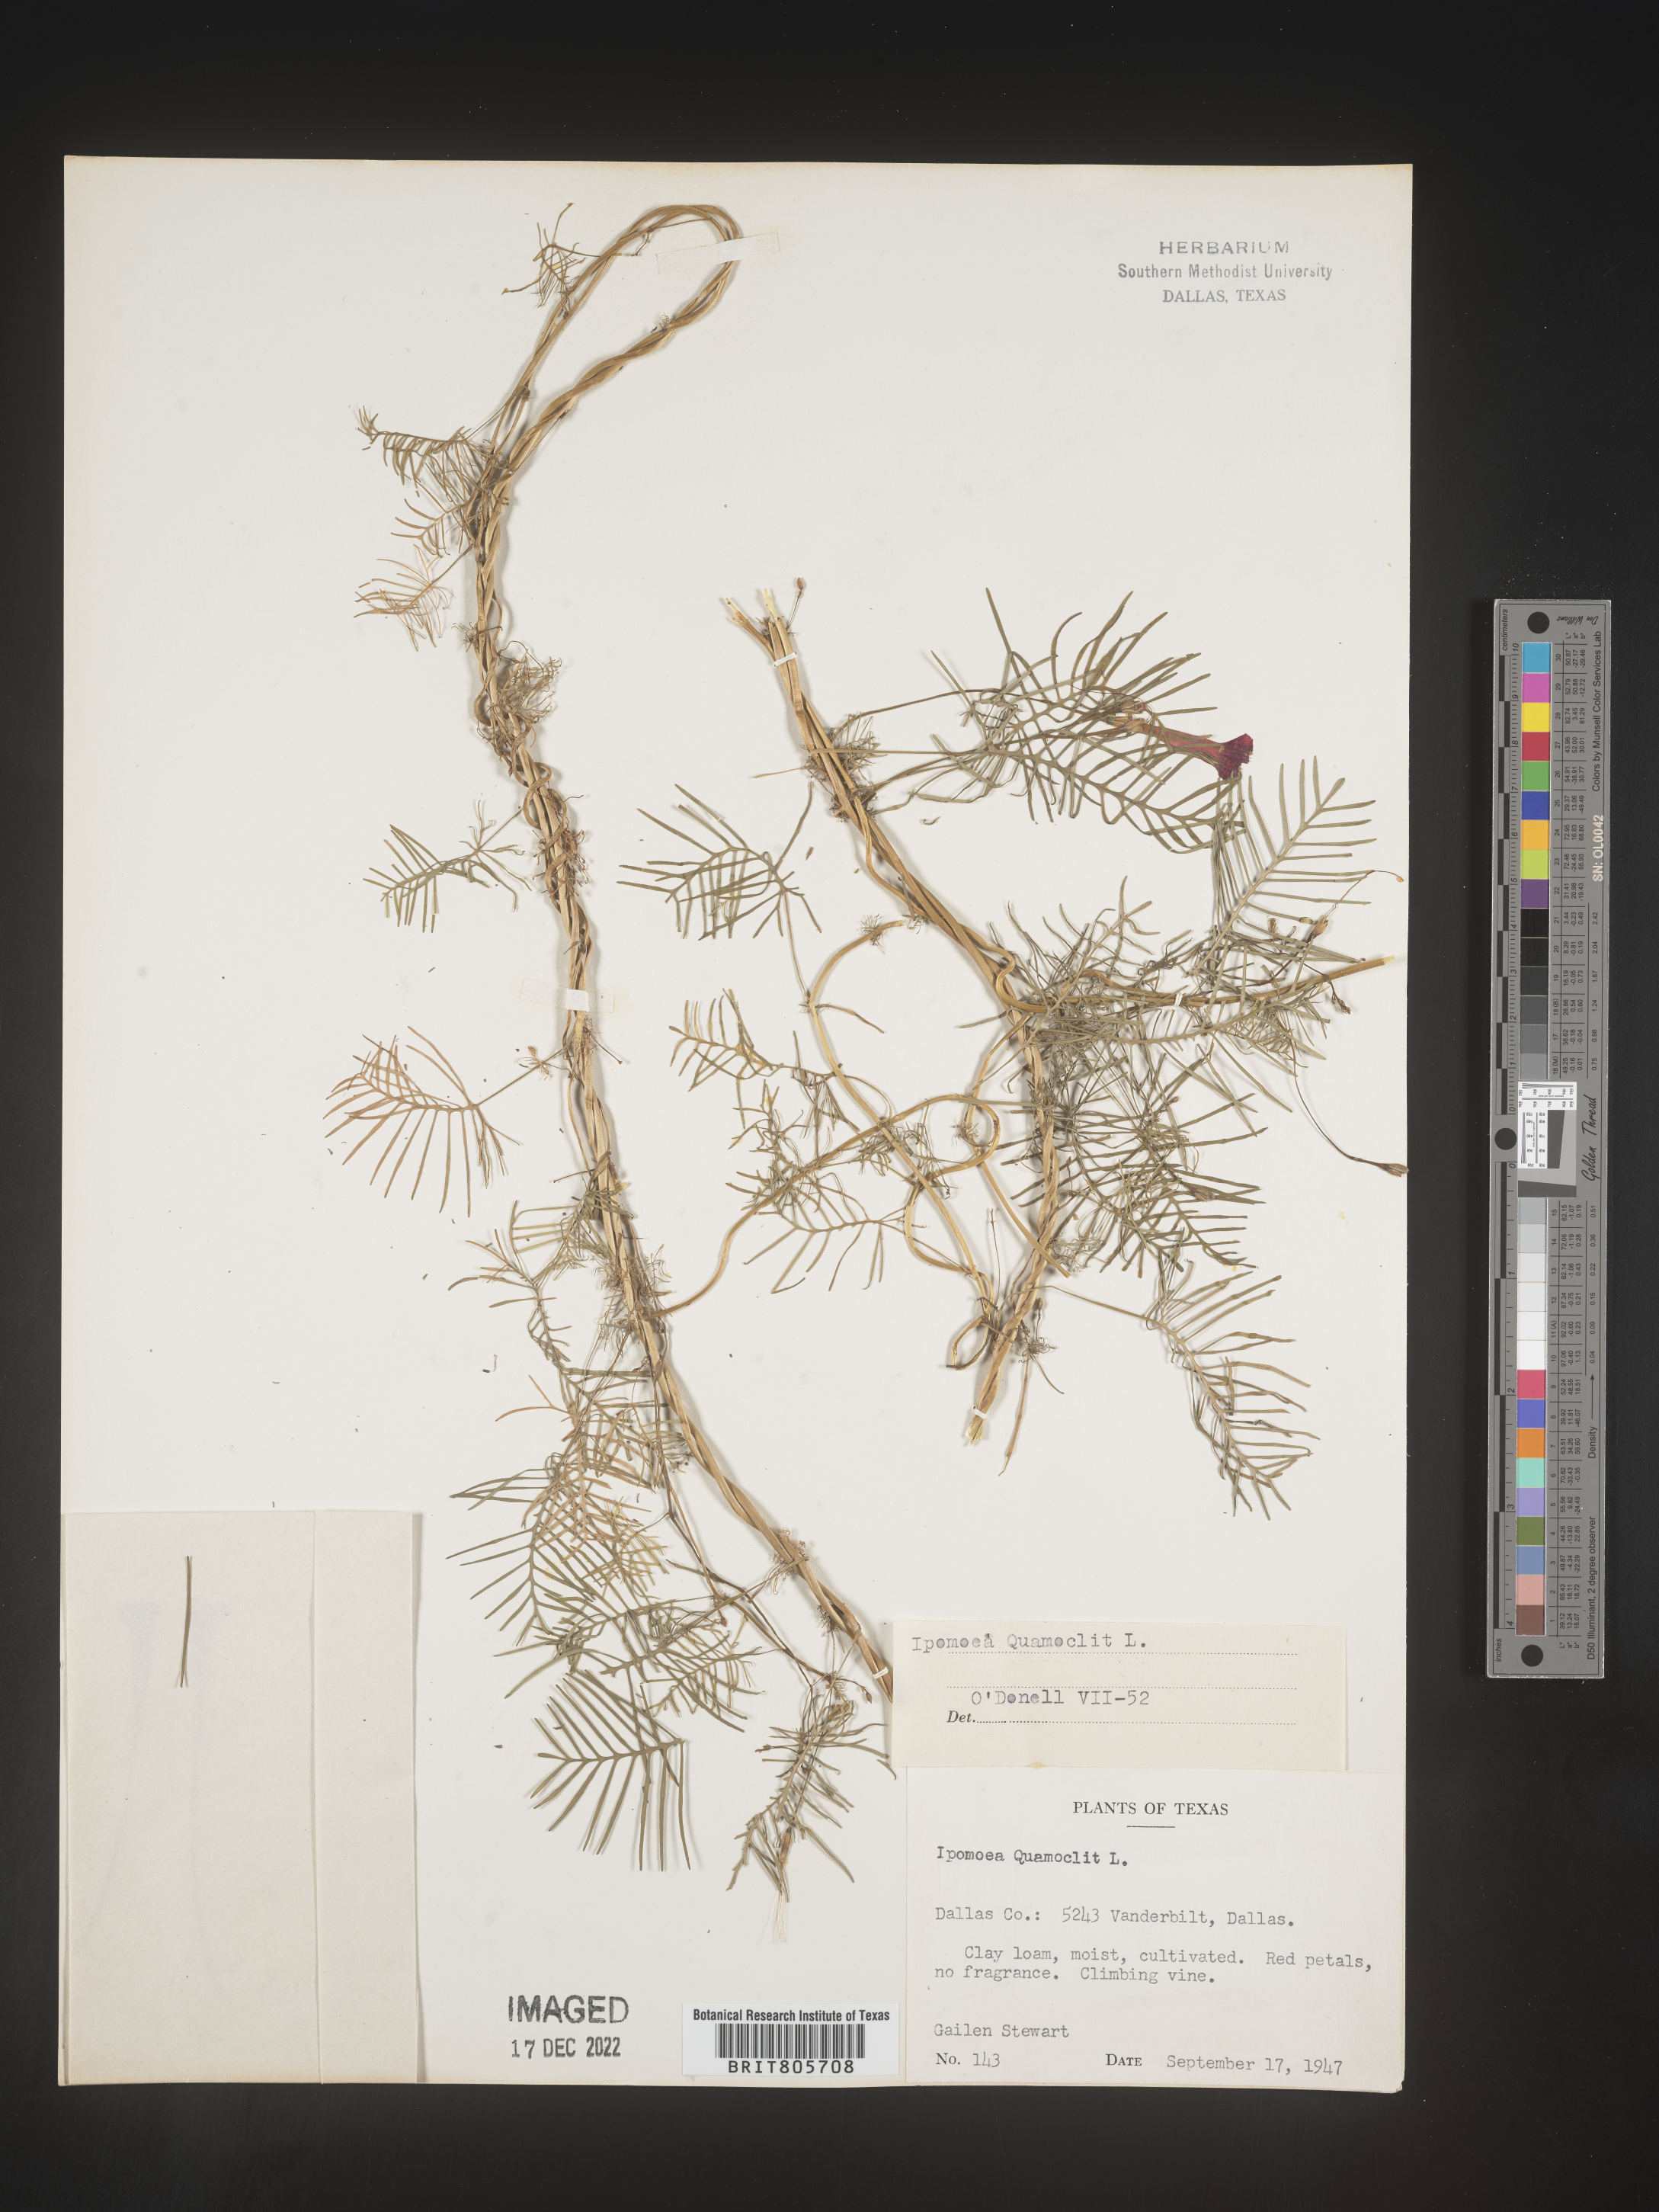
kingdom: Plantae
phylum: Tracheophyta
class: Magnoliopsida
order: Solanales
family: Convolvulaceae
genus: Ipomoea
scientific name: Ipomoea quamoclit
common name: Cypress vine
